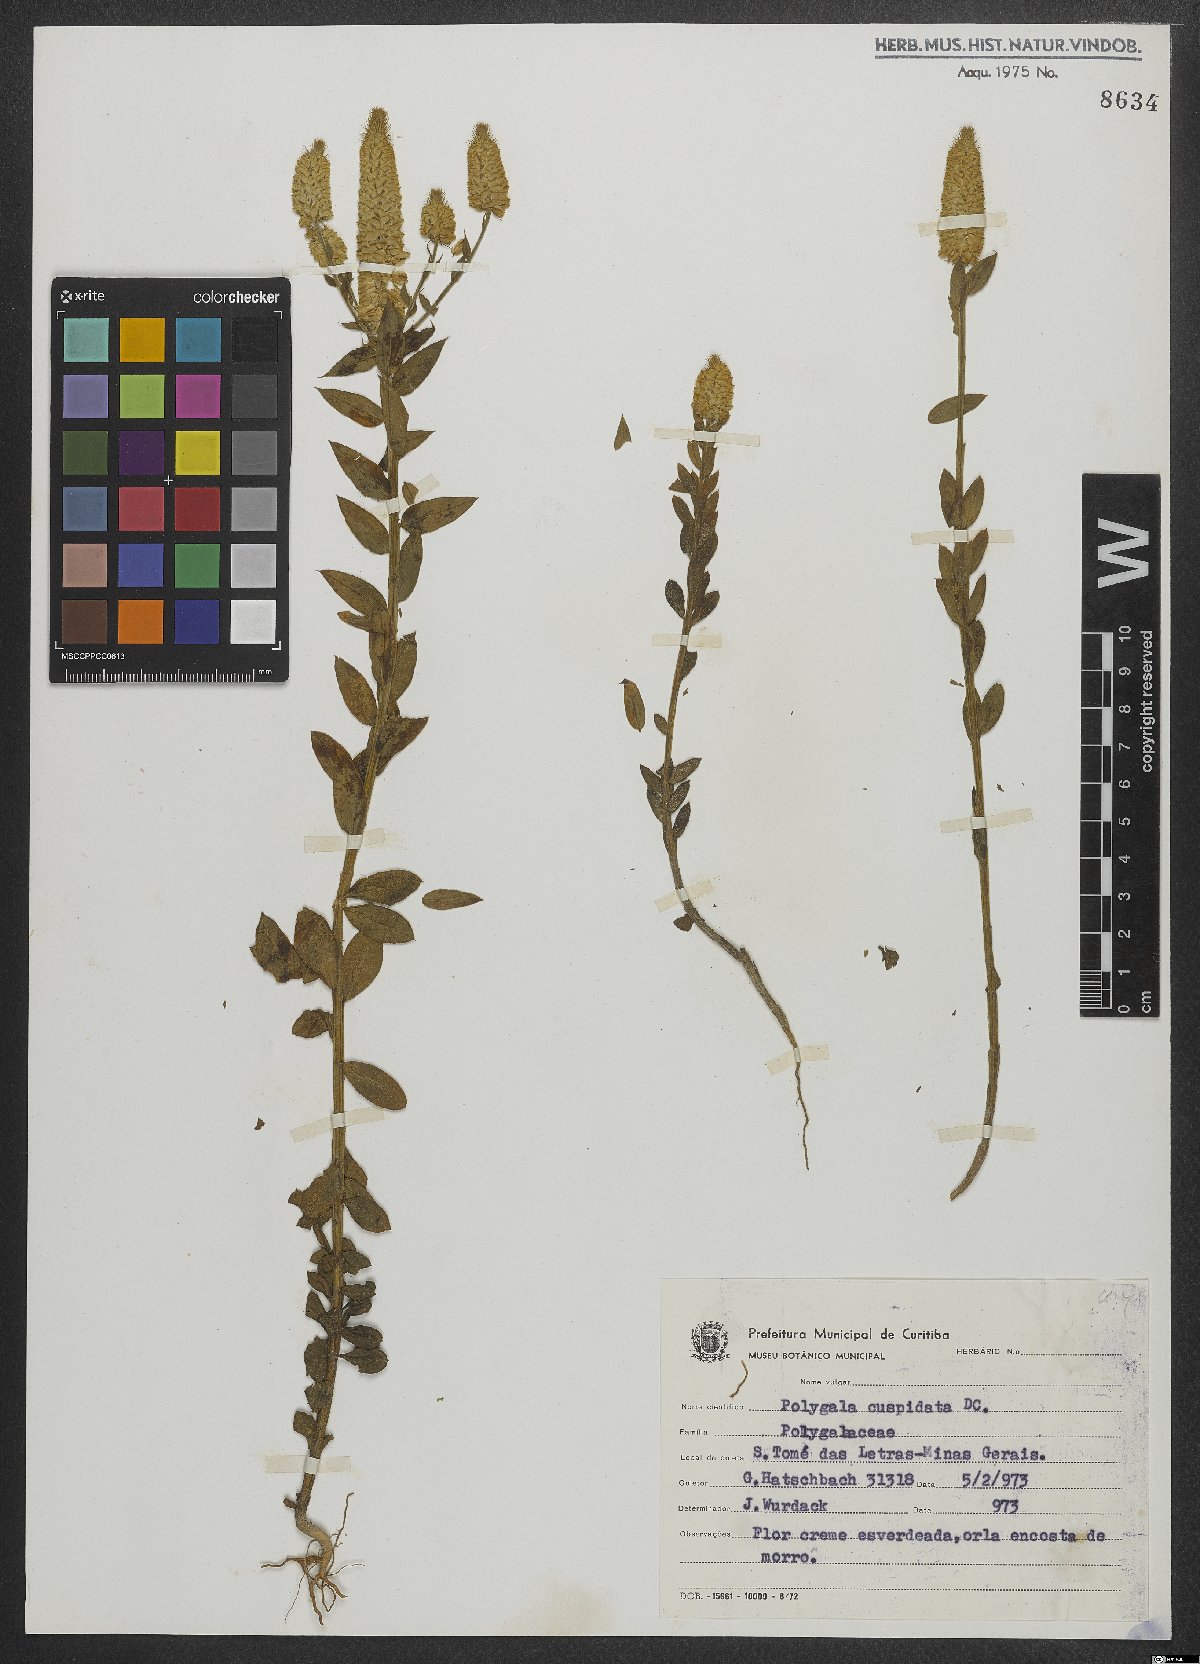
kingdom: Plantae
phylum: Tracheophyta
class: Magnoliopsida
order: Fabales
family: Polygalaceae
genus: Polygala
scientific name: Polygala cuspidata
